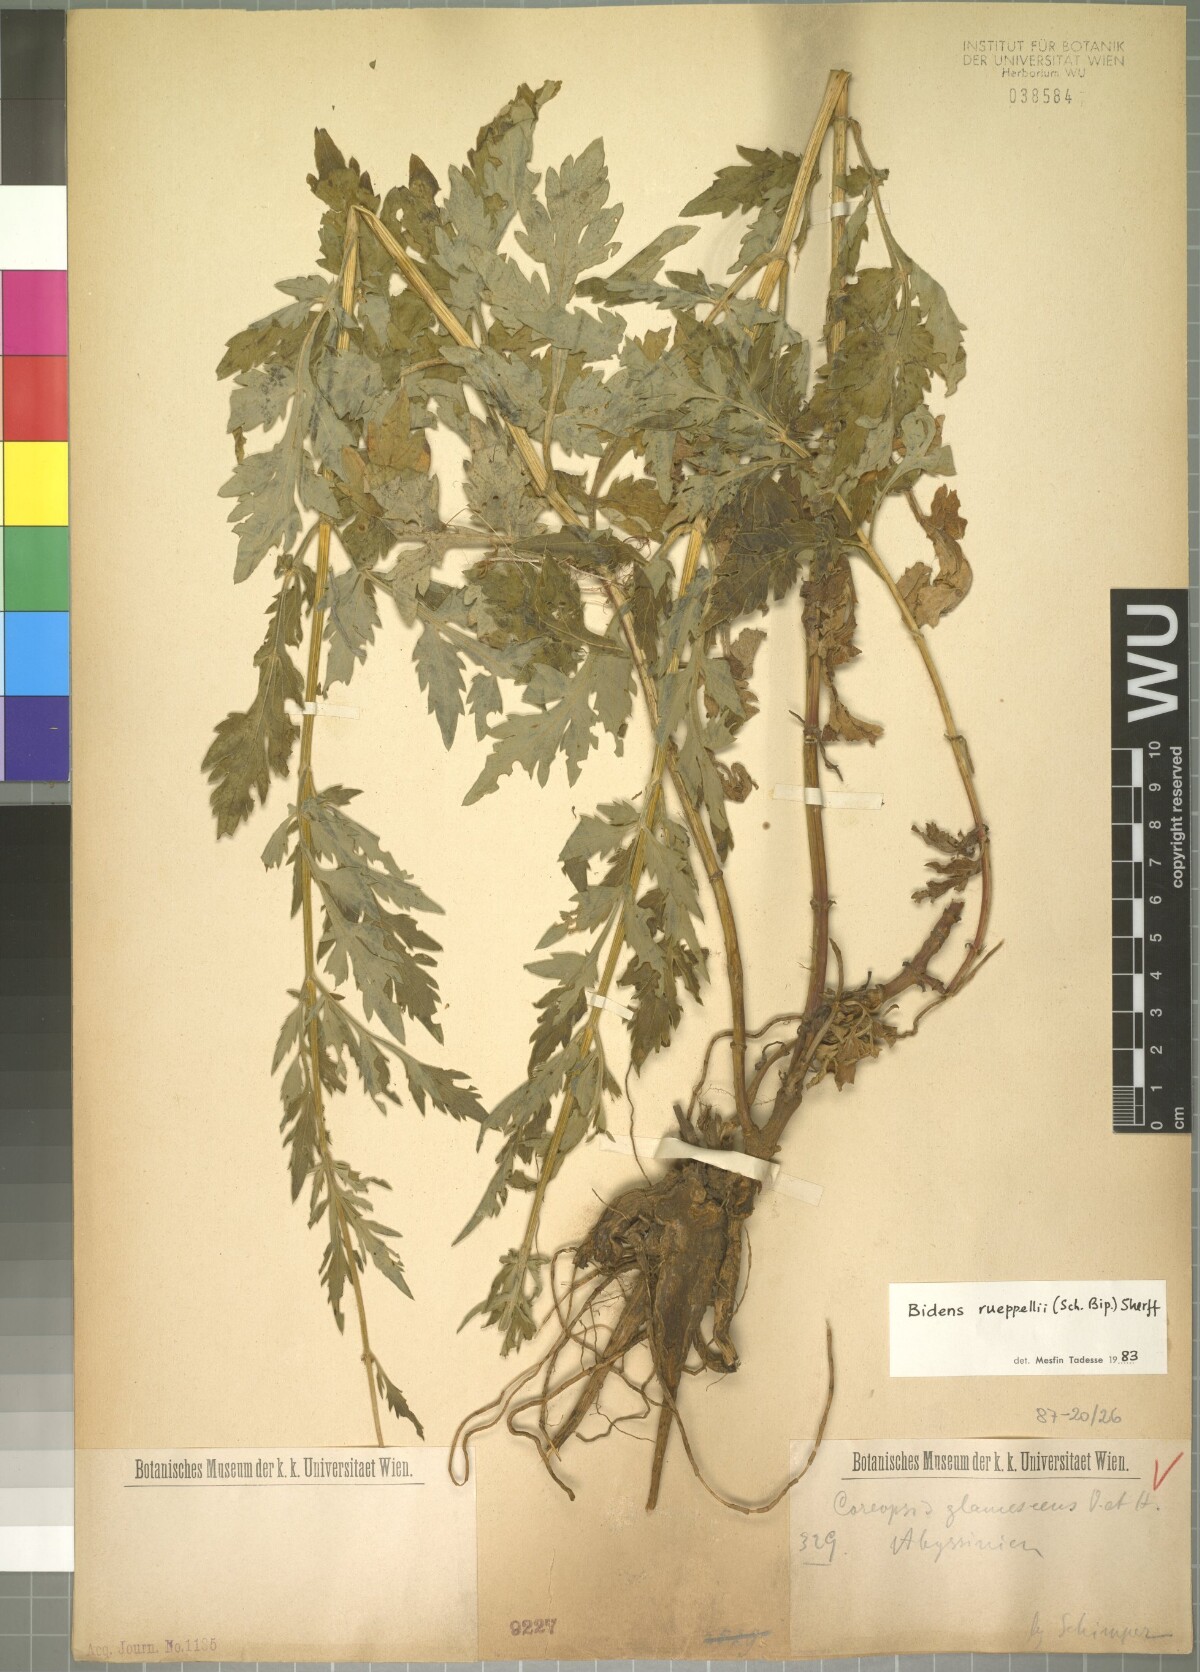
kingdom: Plantae
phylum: Tracheophyta
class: Magnoliopsida
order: Asterales
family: Asteraceae
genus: Bidens
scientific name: Bidens rueppellii
